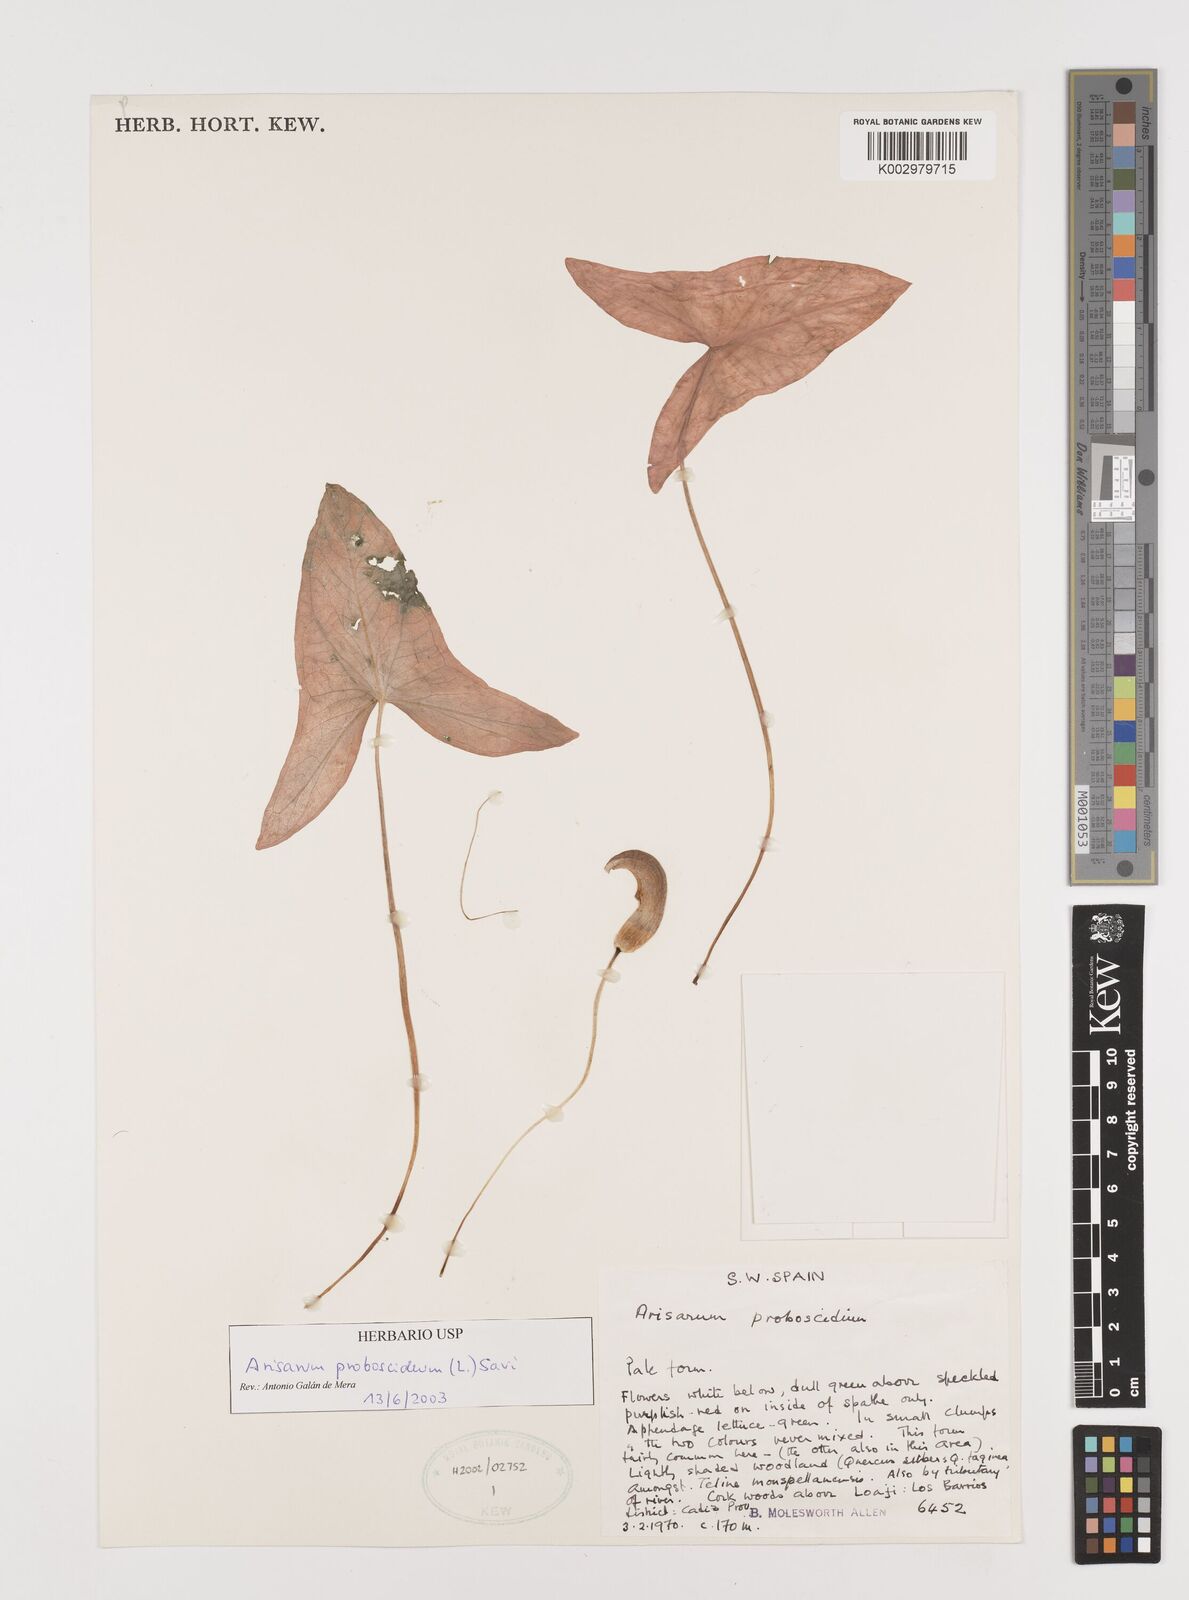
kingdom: Plantae
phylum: Tracheophyta
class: Liliopsida
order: Alismatales
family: Araceae
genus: Arisarum
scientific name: Arisarum proboscideum
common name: Mousetailplant
